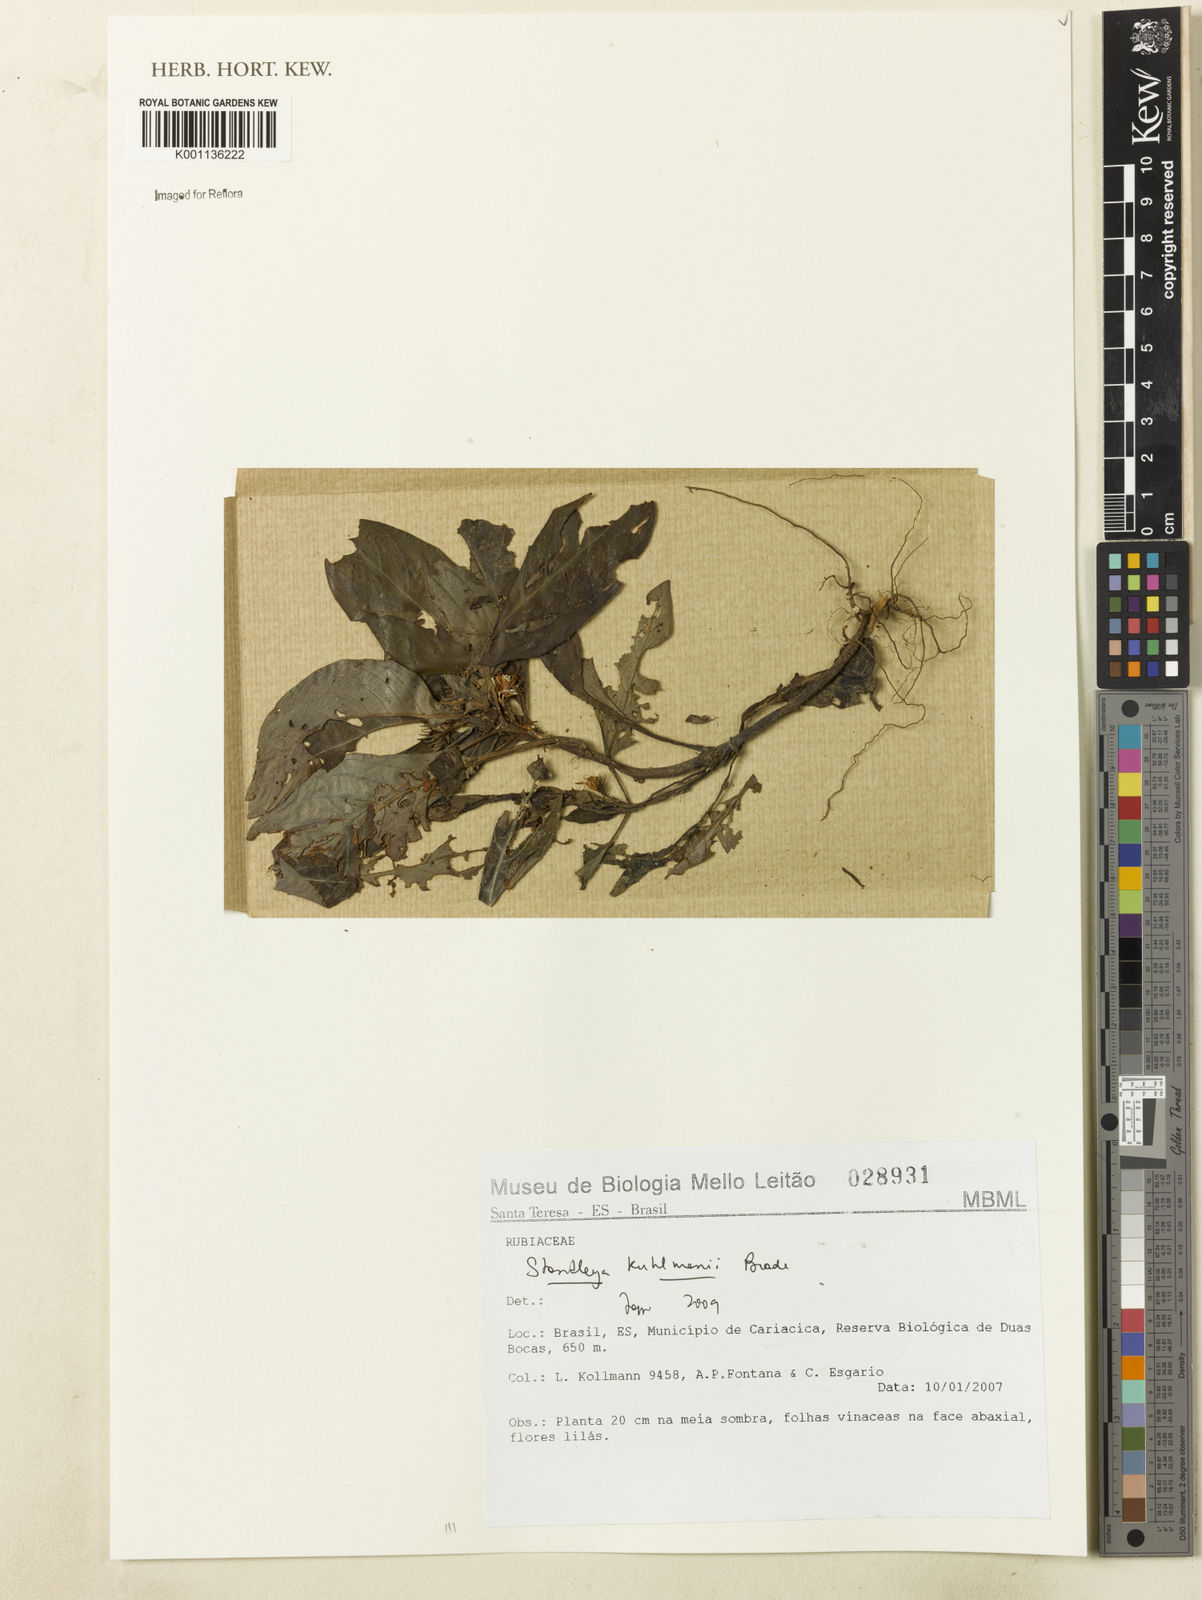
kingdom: Plantae
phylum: Tracheophyta
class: Magnoliopsida
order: Gentianales
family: Rubiaceae
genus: Standleya
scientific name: Standleya kuhlmannii
